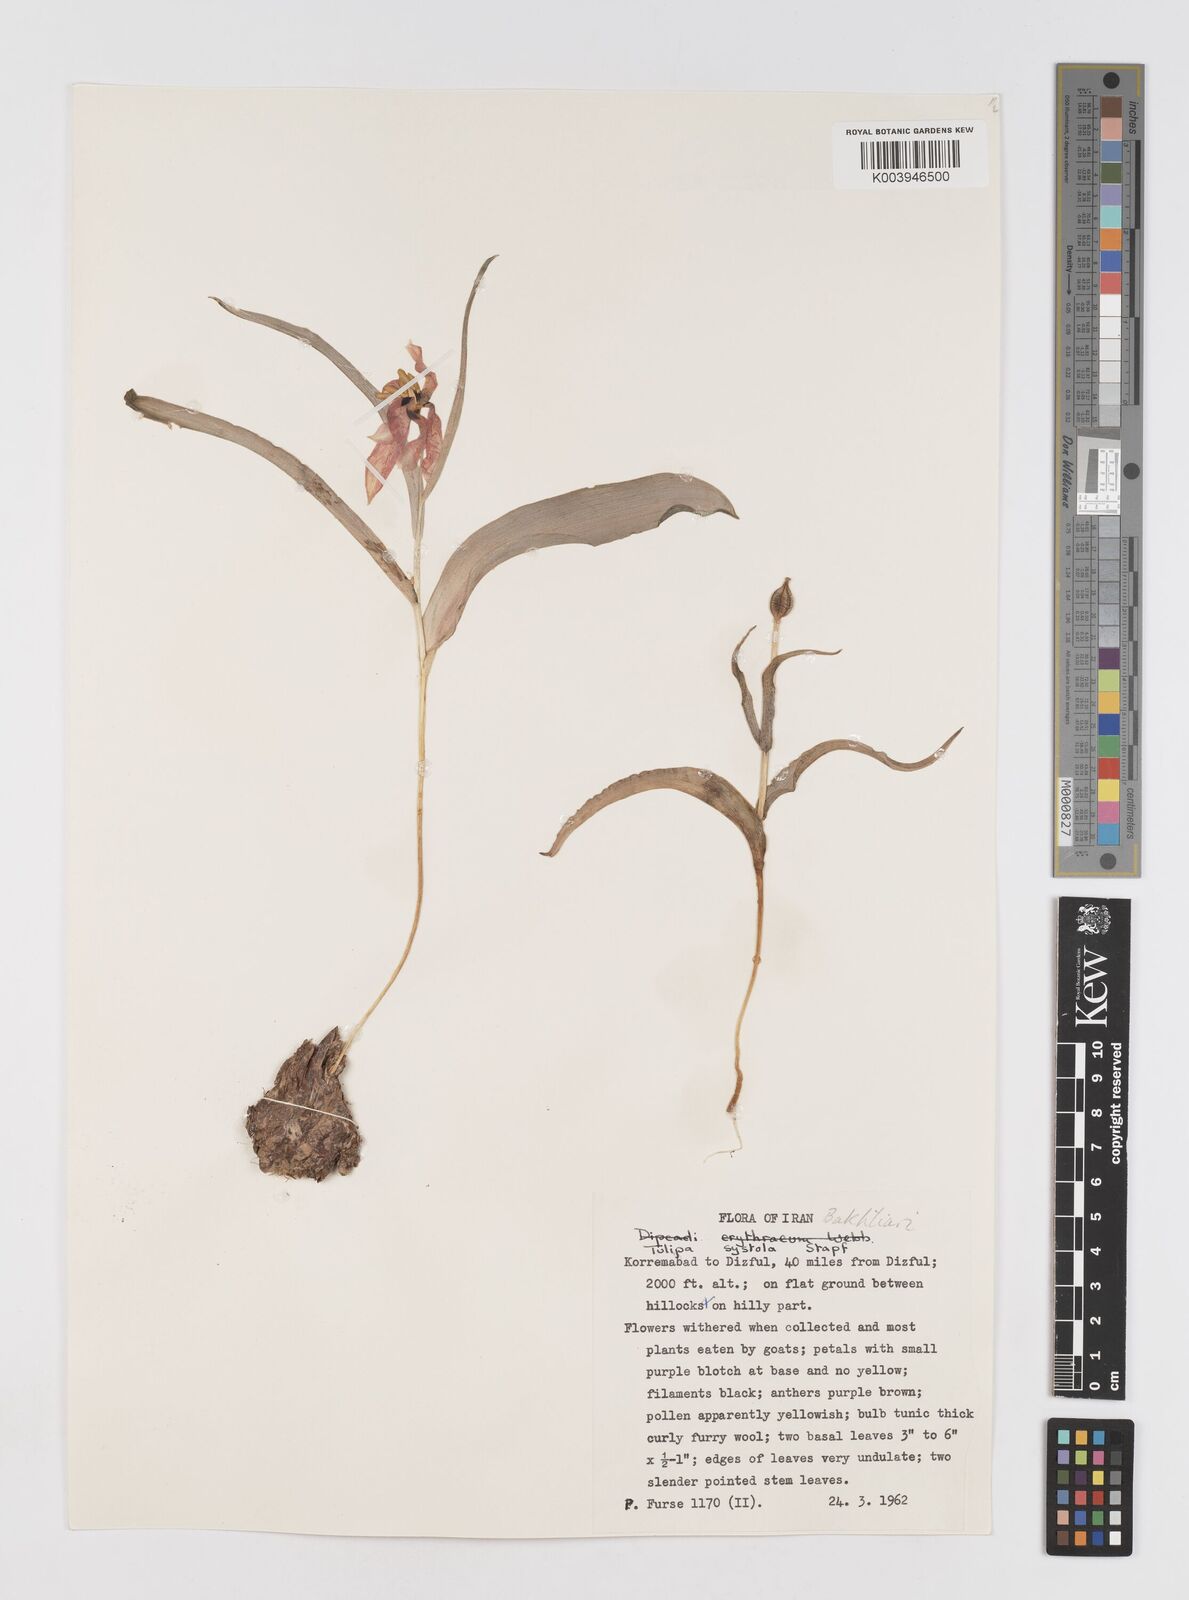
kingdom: Plantae
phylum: Tracheophyta
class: Liliopsida
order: Liliales
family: Liliaceae
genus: Tulipa
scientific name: Tulipa systola
